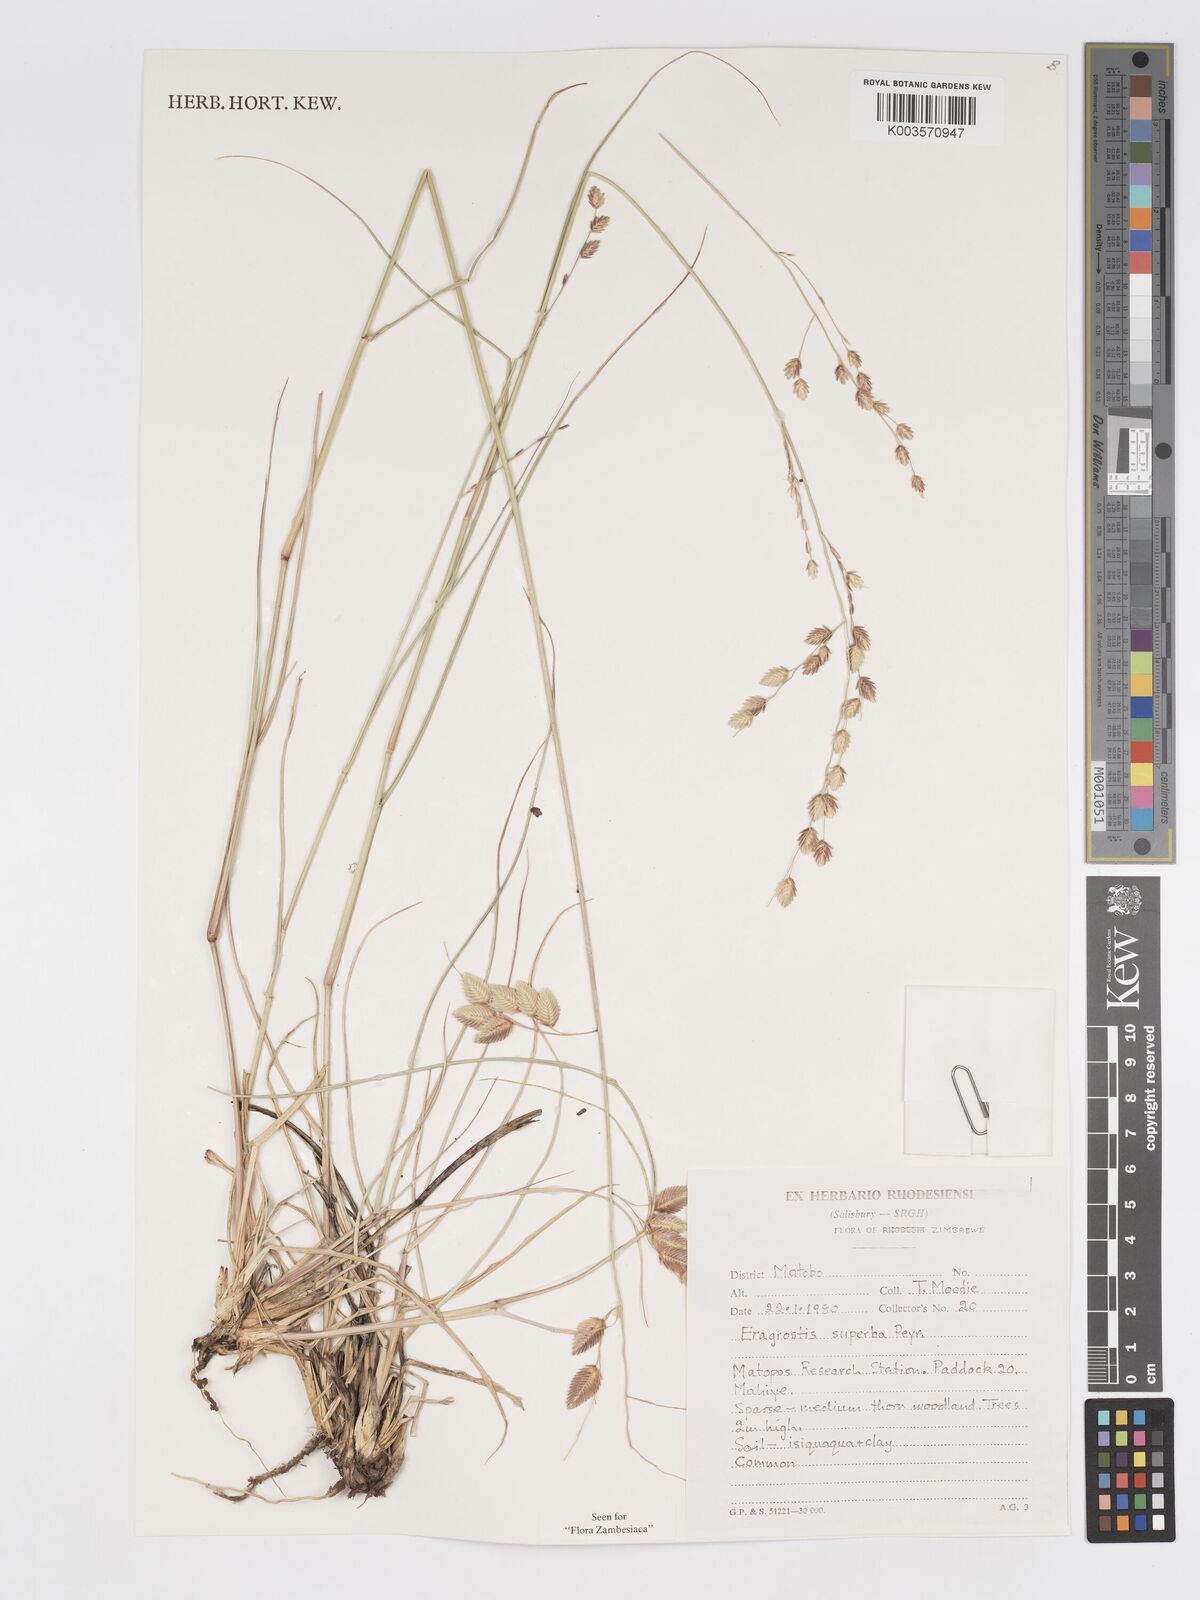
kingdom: Plantae
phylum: Tracheophyta
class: Liliopsida
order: Poales
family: Poaceae
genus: Eragrostis
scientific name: Eragrostis superba
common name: Wilman lovegrass
